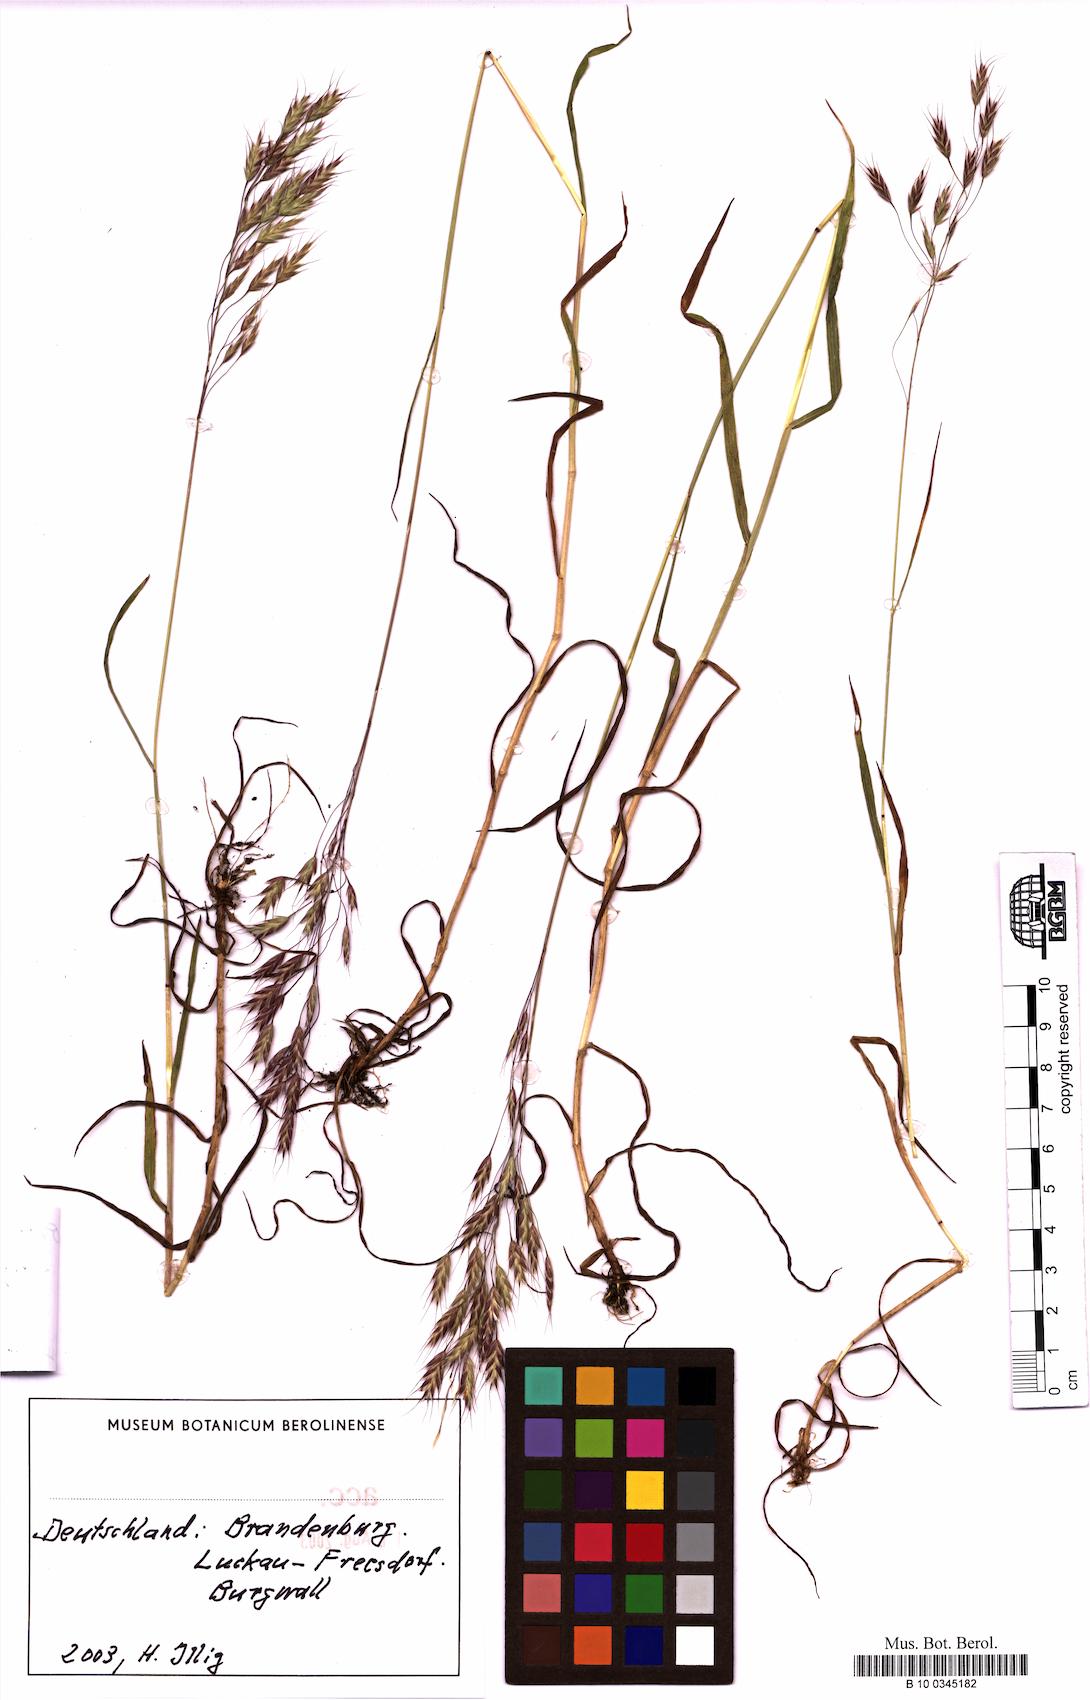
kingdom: Plantae
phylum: Tracheophyta
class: Liliopsida
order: Poales
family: Poaceae
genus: Bromus
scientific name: Bromus arvensis
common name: Field brome
